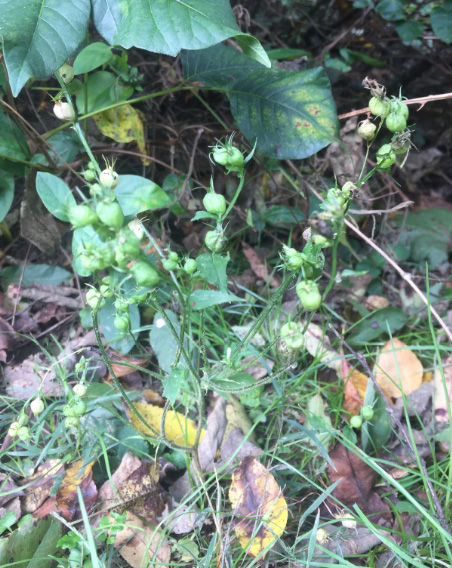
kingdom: Plantae
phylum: Tracheophyta
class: Magnoliopsida
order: Asterales
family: Campanulaceae
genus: Lobelia
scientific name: Lobelia inflata
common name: Indian-tobacco
